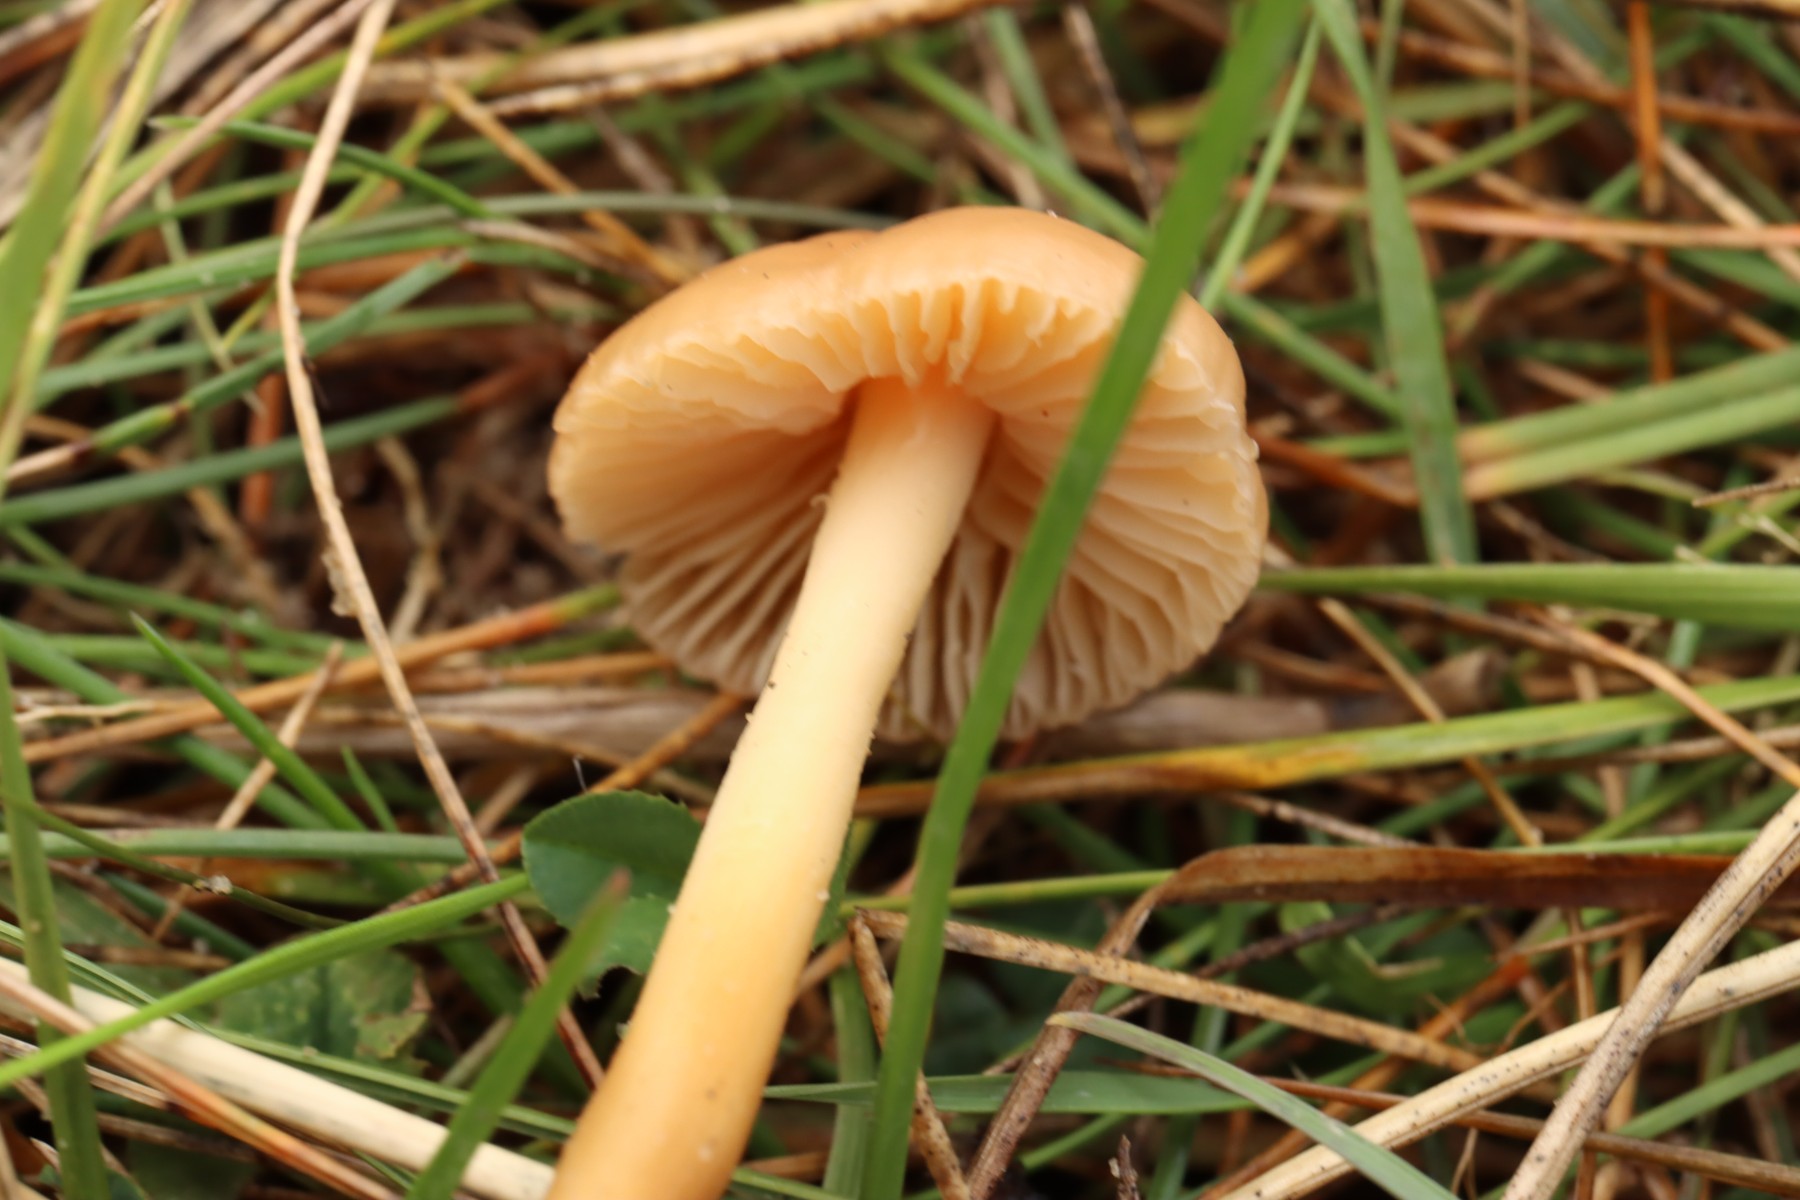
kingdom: Fungi
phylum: Basidiomycota
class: Agaricomycetes
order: Agaricales
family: Marasmiaceae
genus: Marasmius
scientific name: Marasmius oreades
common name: elledans-bruskhat
